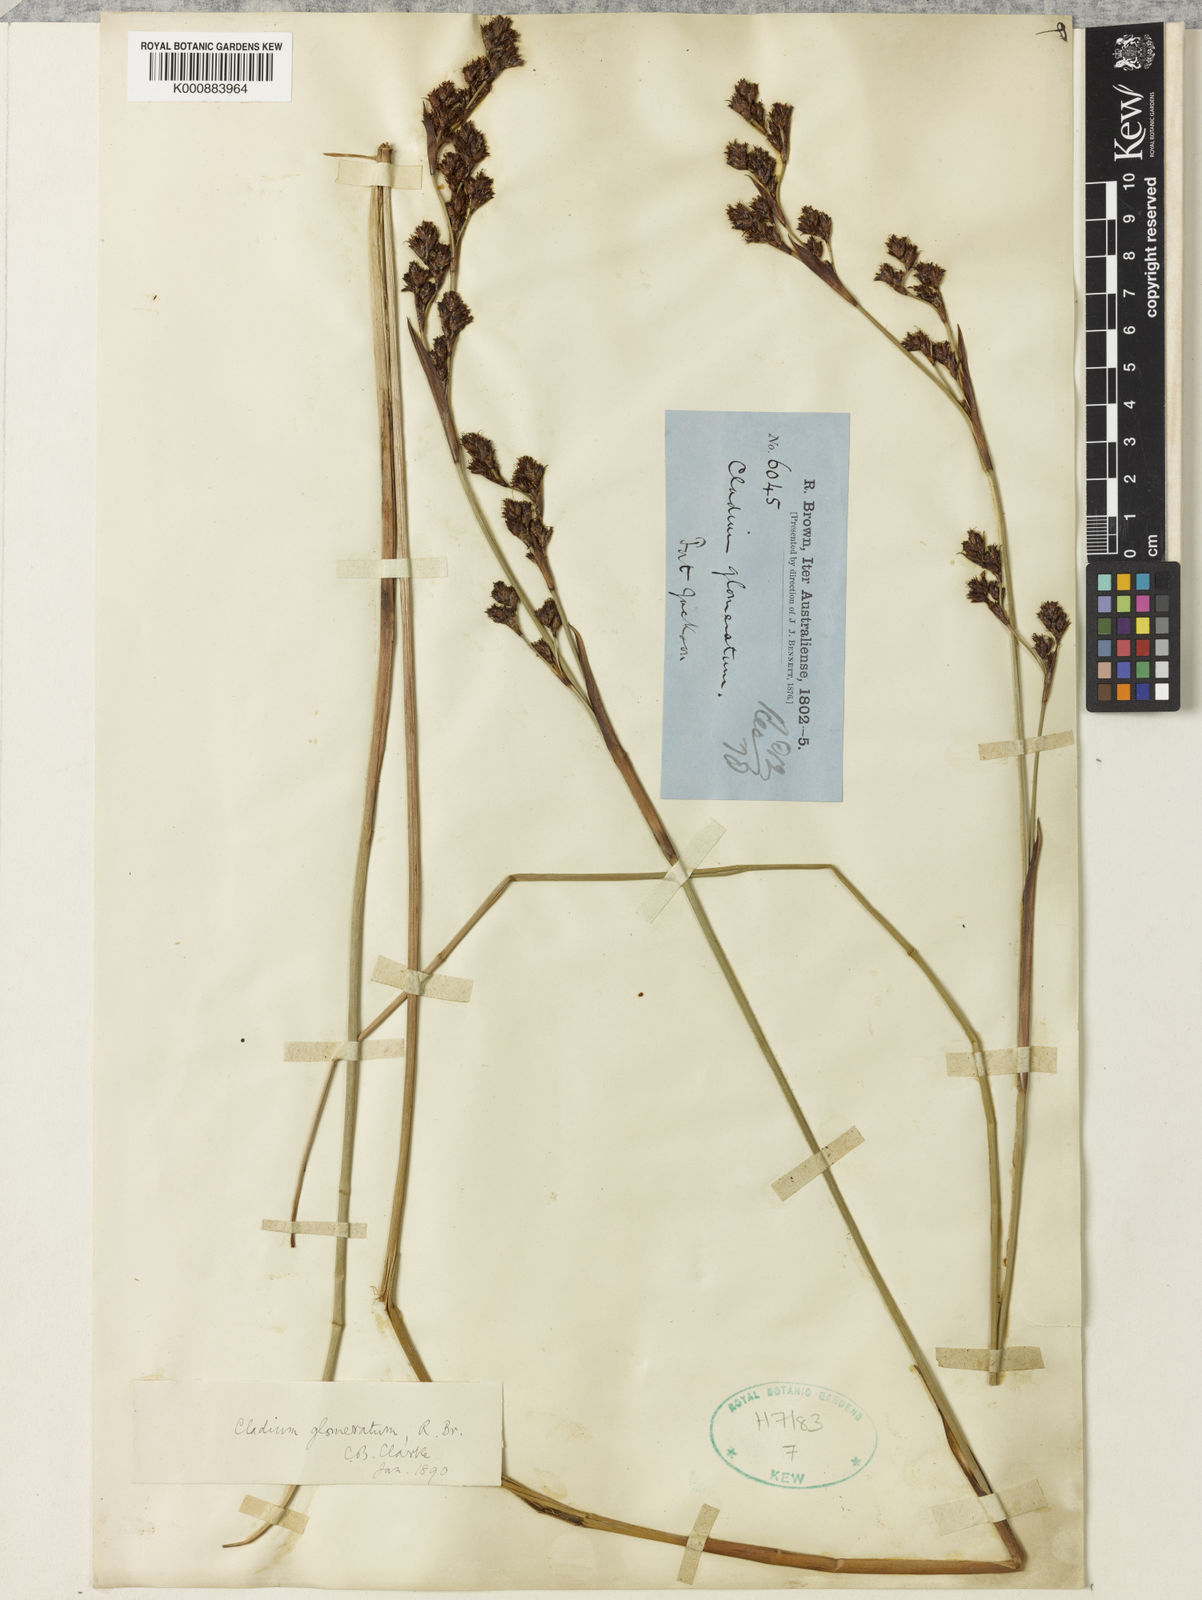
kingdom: Plantae
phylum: Tracheophyta
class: Liliopsida
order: Poales
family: Cyperaceae
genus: Machaerina
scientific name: Machaerina rubiginosa
